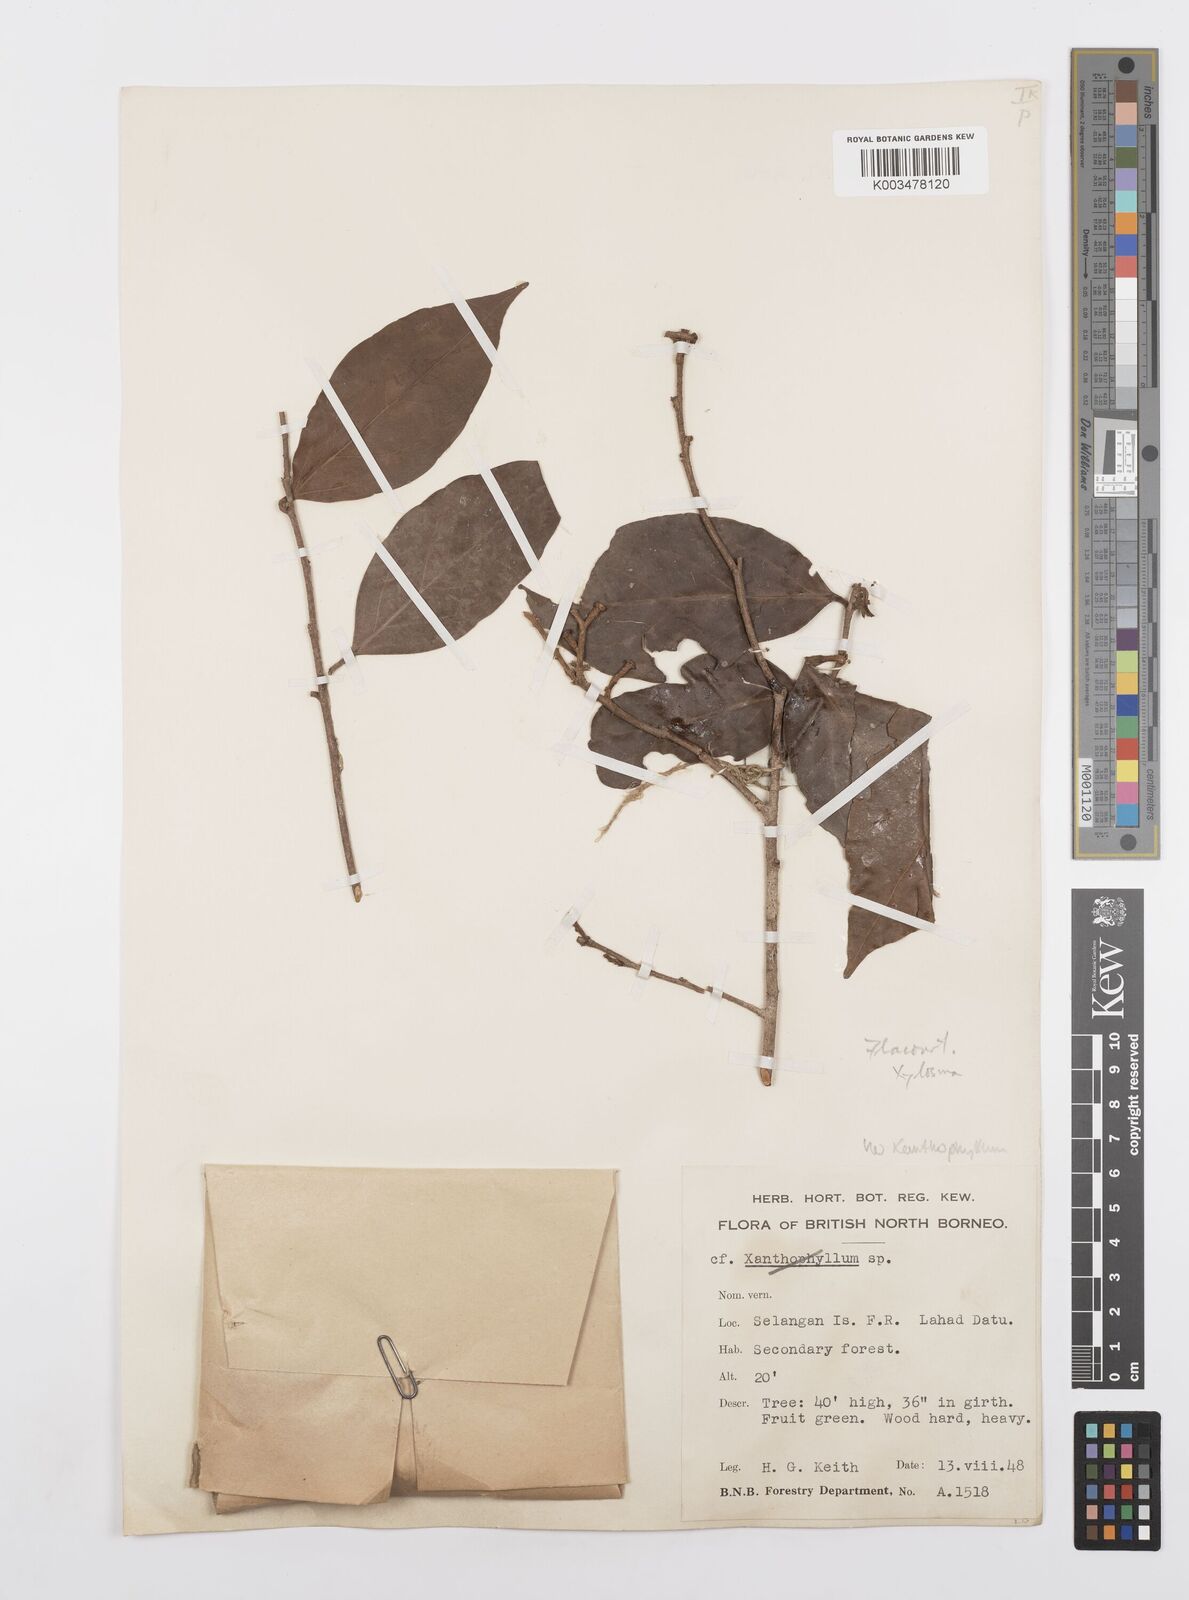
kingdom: Plantae
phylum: Tracheophyta
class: Magnoliopsida
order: Malpighiales
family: Salicaceae
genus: Scolopia
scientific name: Scolopia
